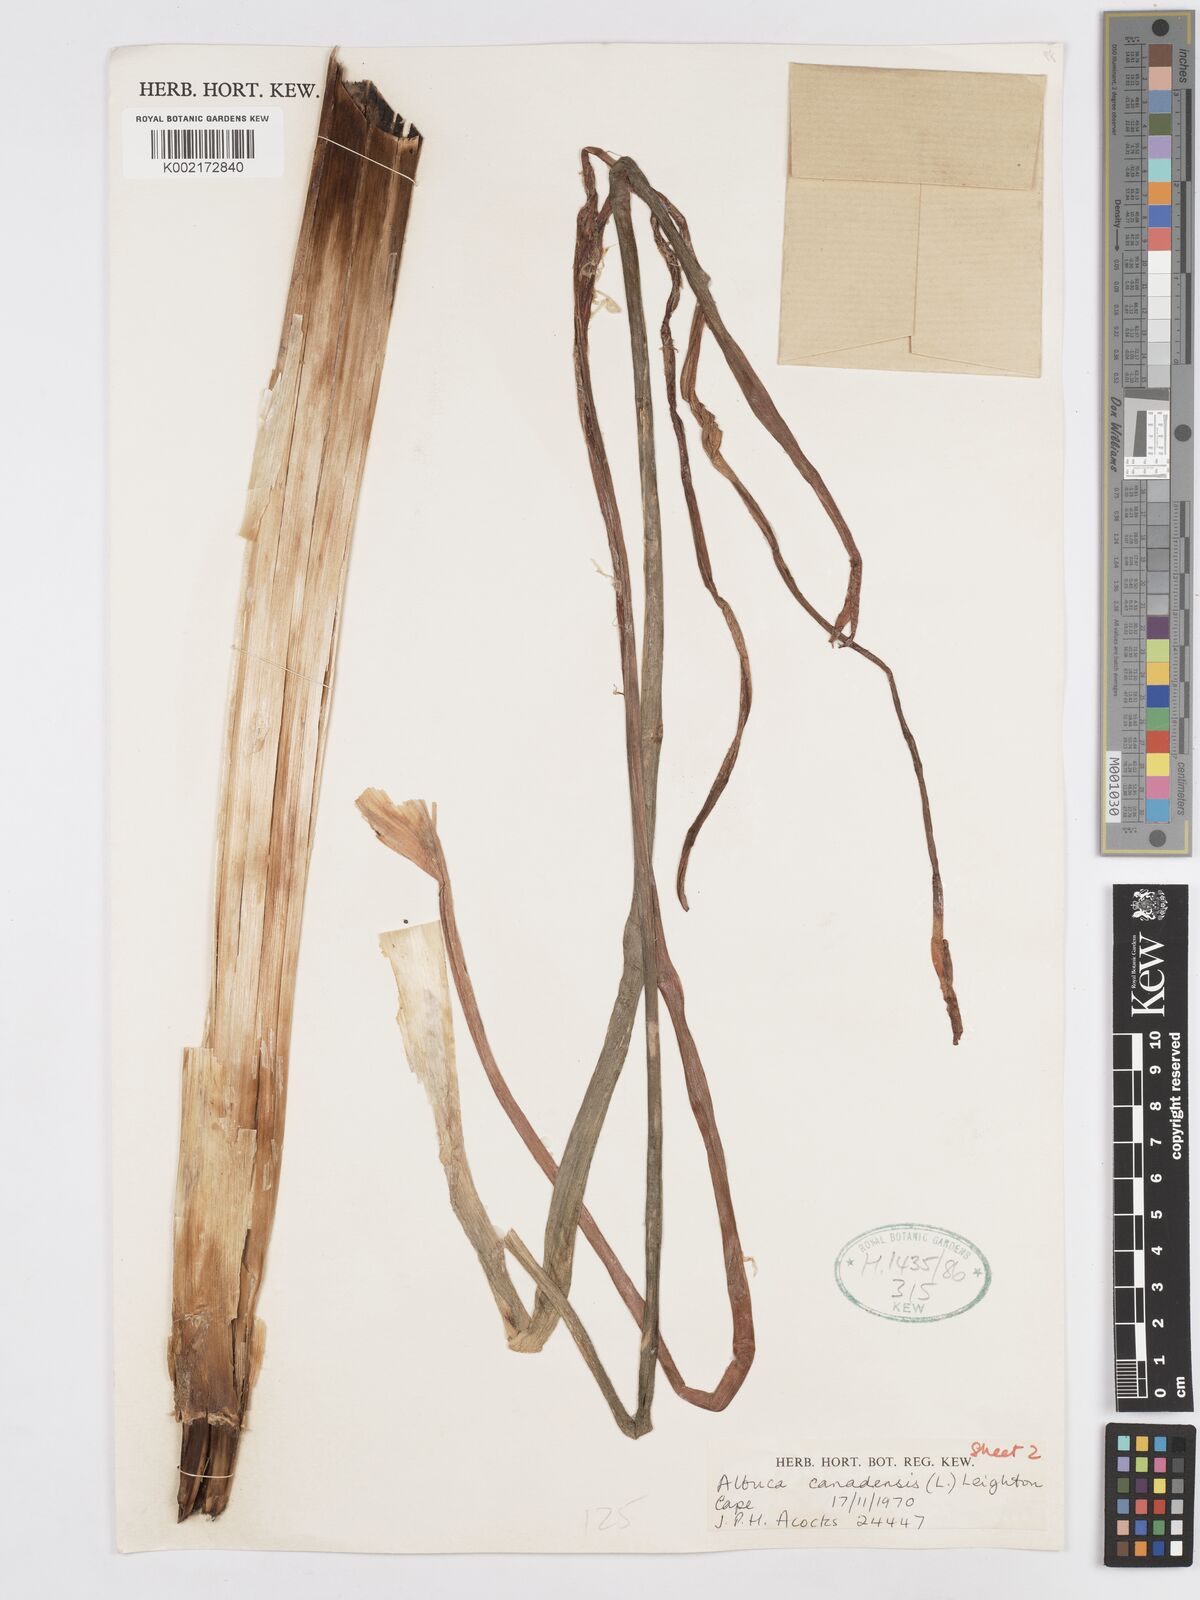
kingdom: Plantae
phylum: Tracheophyta
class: Liliopsida
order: Asparagales
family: Asparagaceae
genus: Albuca
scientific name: Albuca canadensis
